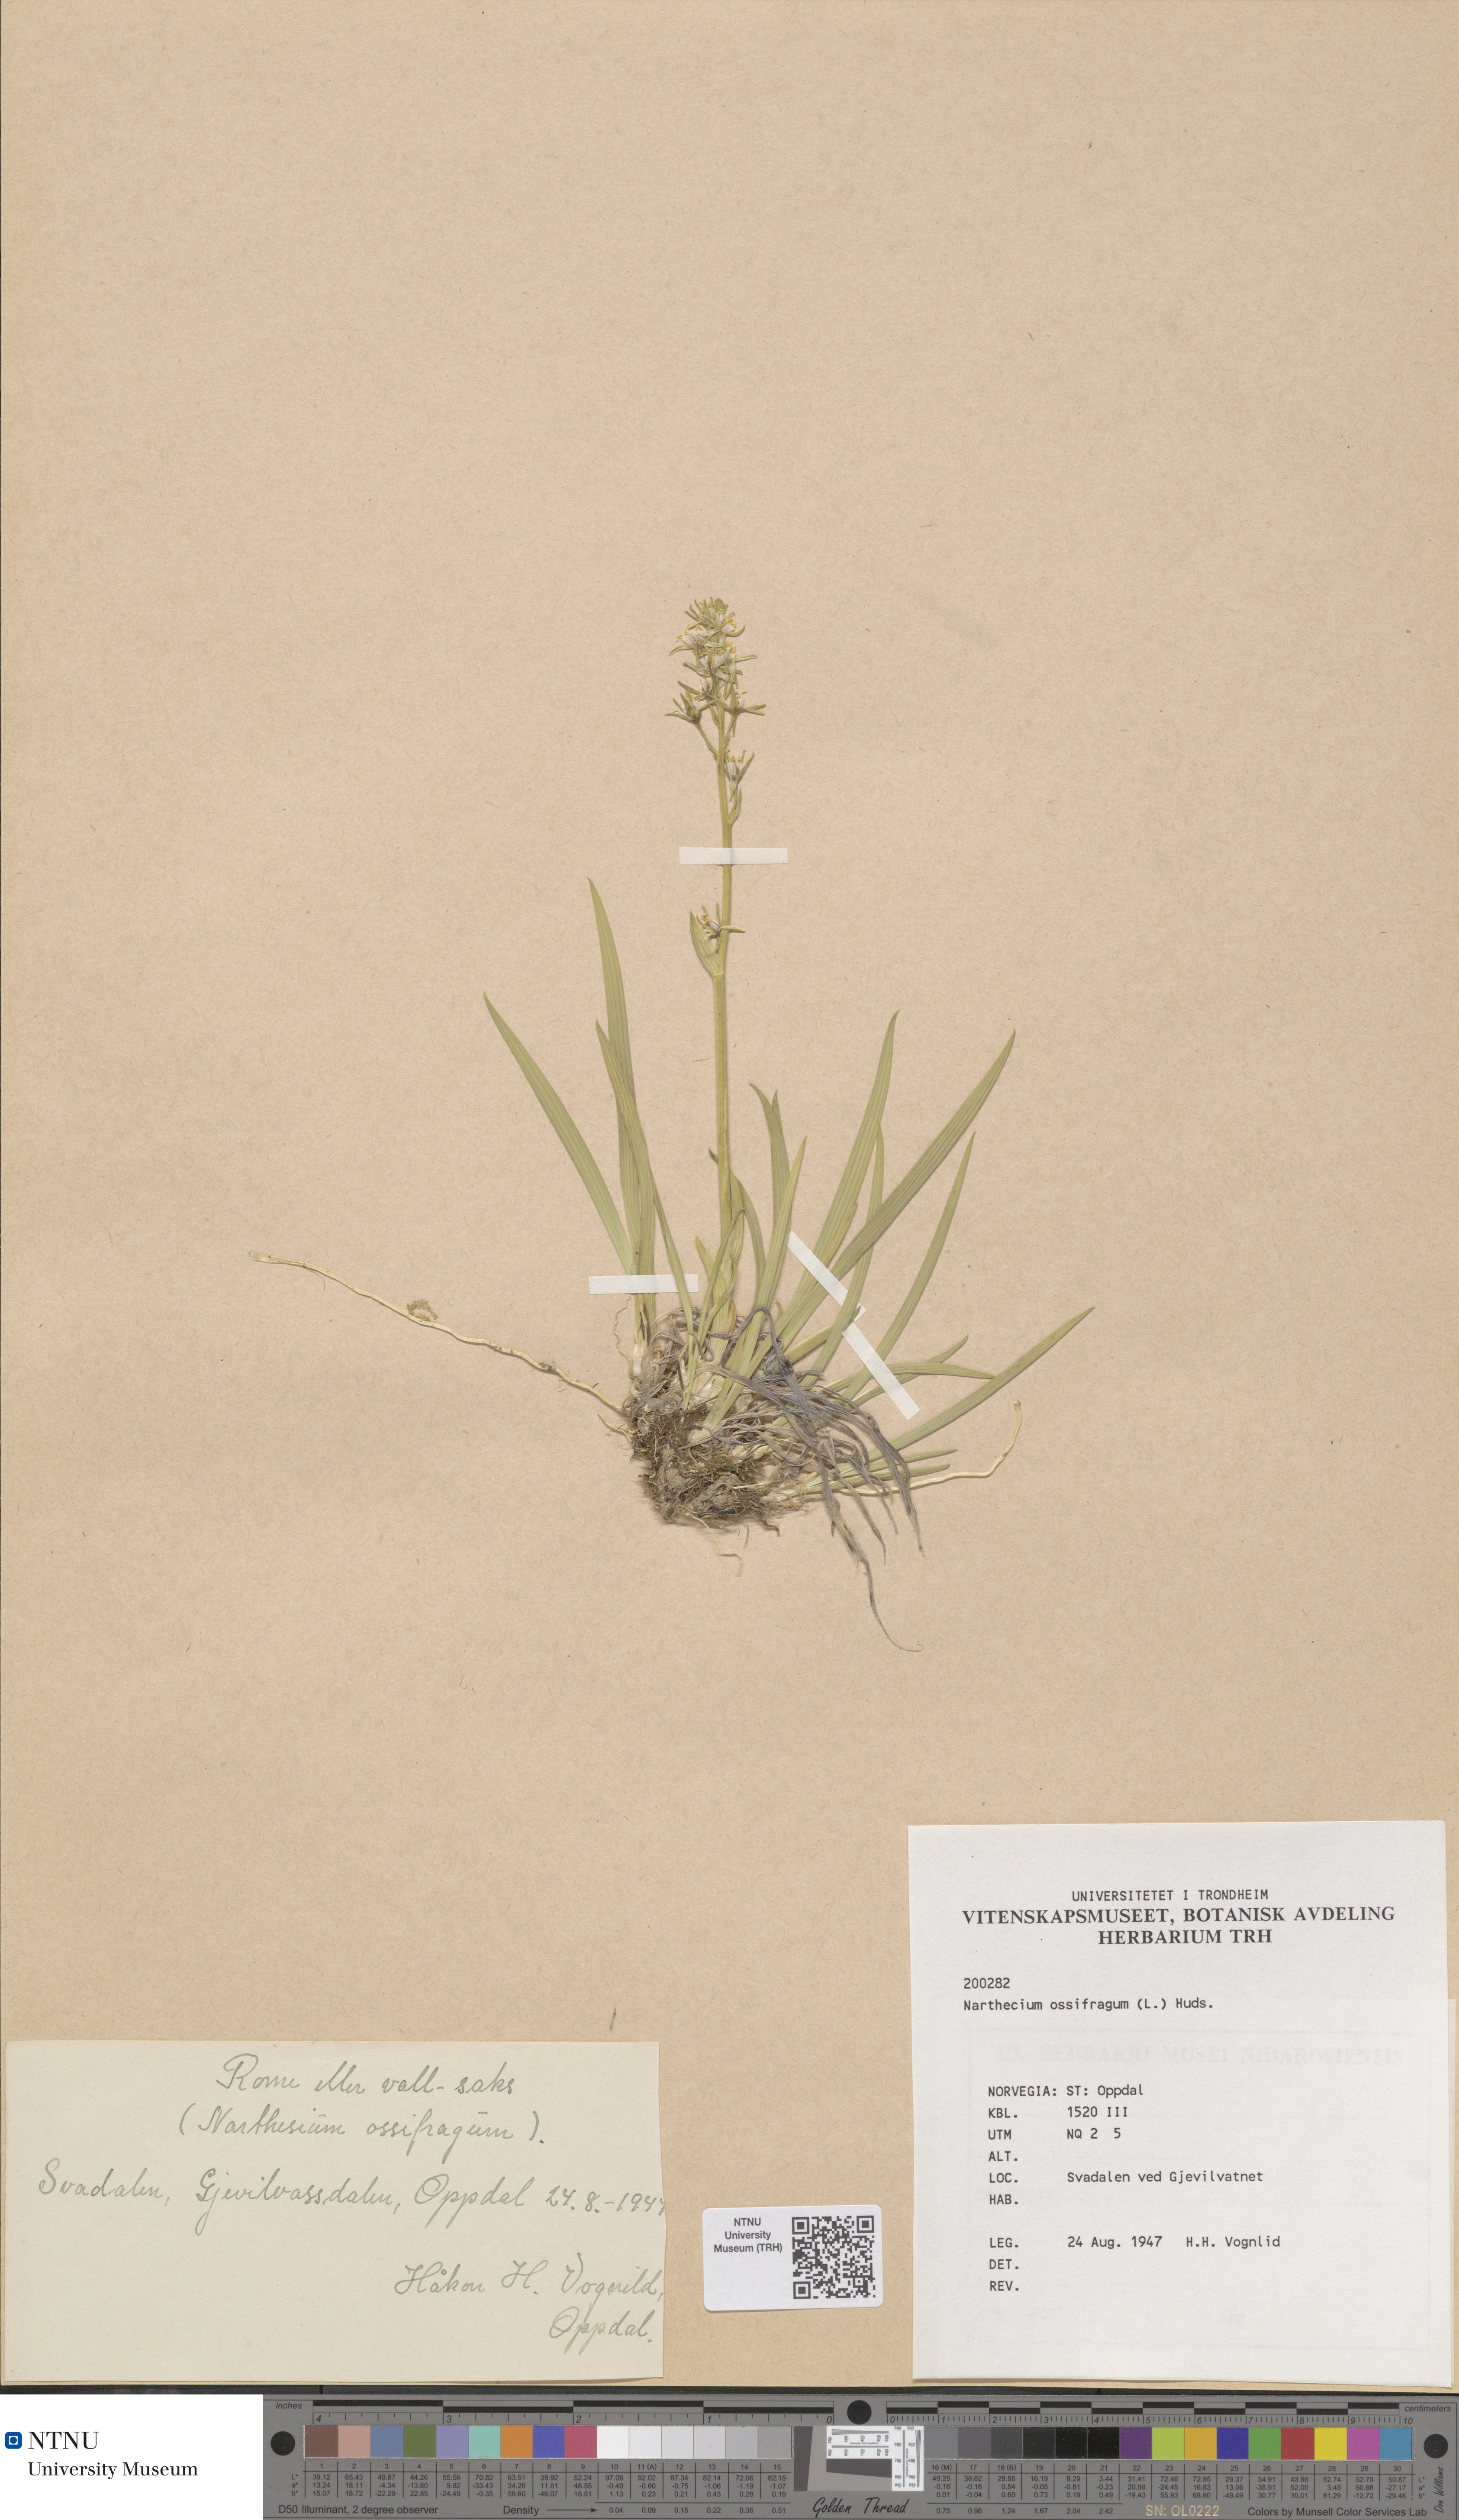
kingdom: Plantae
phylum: Tracheophyta
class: Liliopsida
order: Dioscoreales
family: Nartheciaceae
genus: Narthecium
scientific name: Narthecium ossifragum
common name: Bog asphodel
